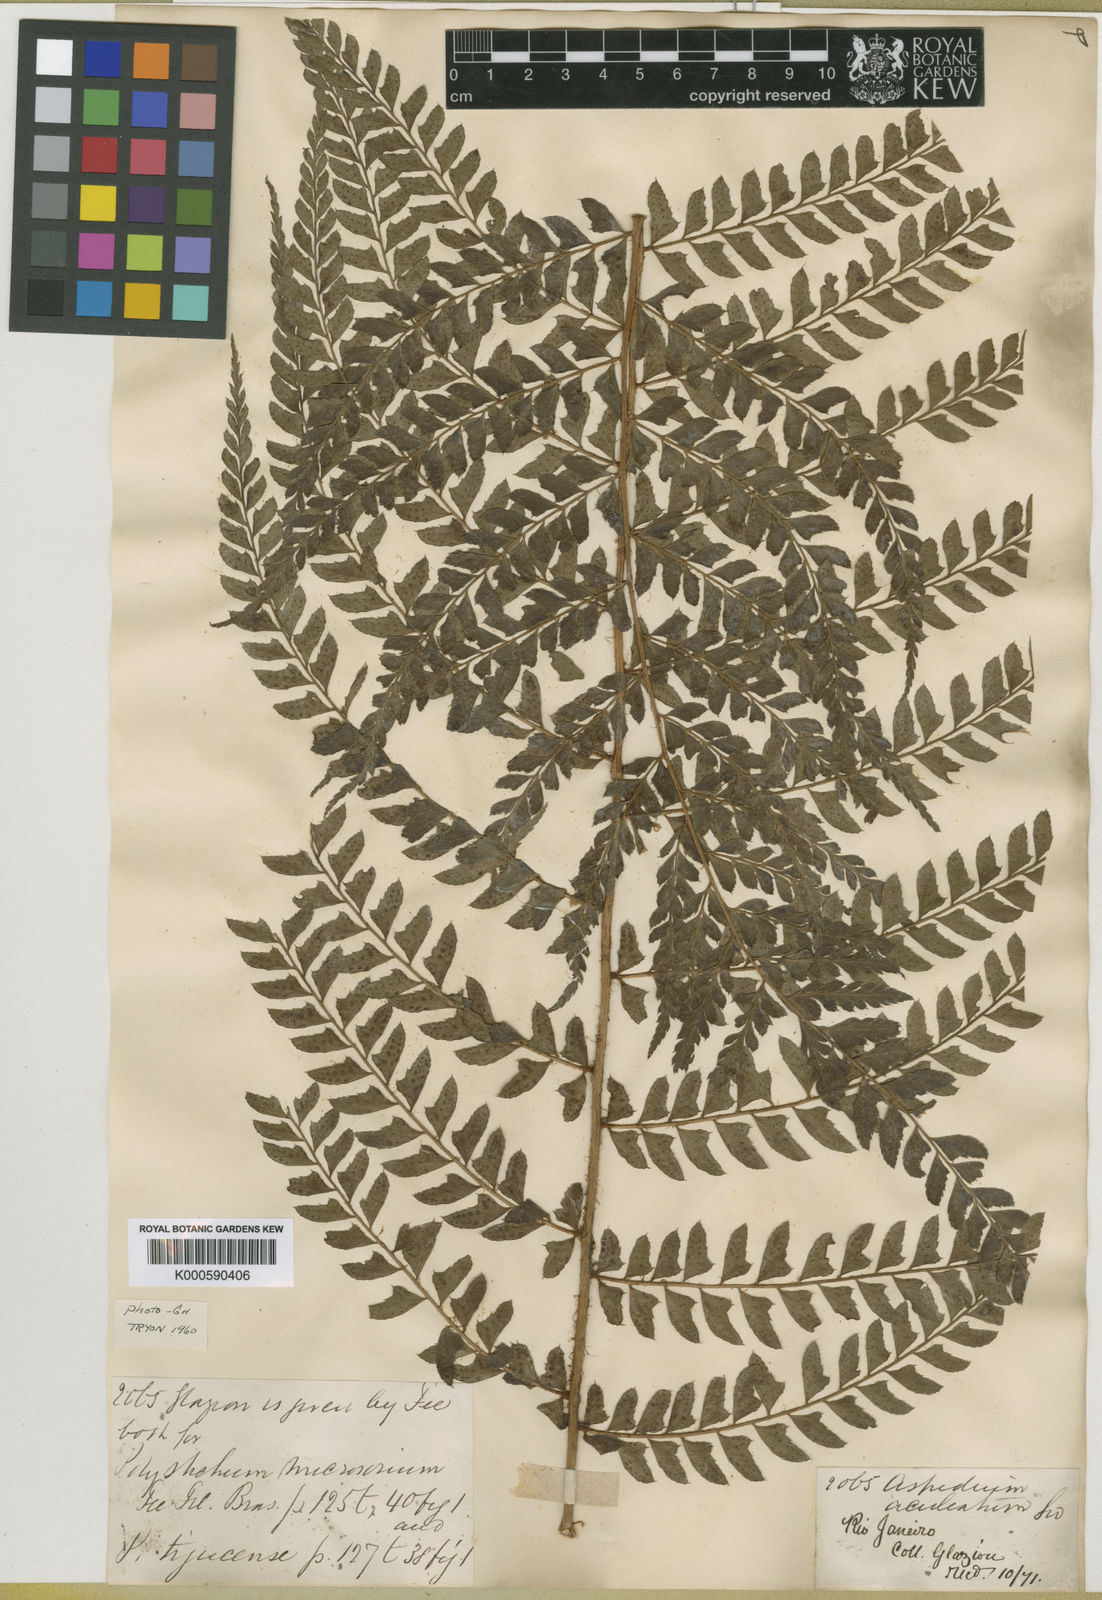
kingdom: Plantae
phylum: Tracheophyta
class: Polypodiopsida
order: Polypodiales
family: Dryopteridaceae
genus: Polystichum
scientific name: Polystichum
